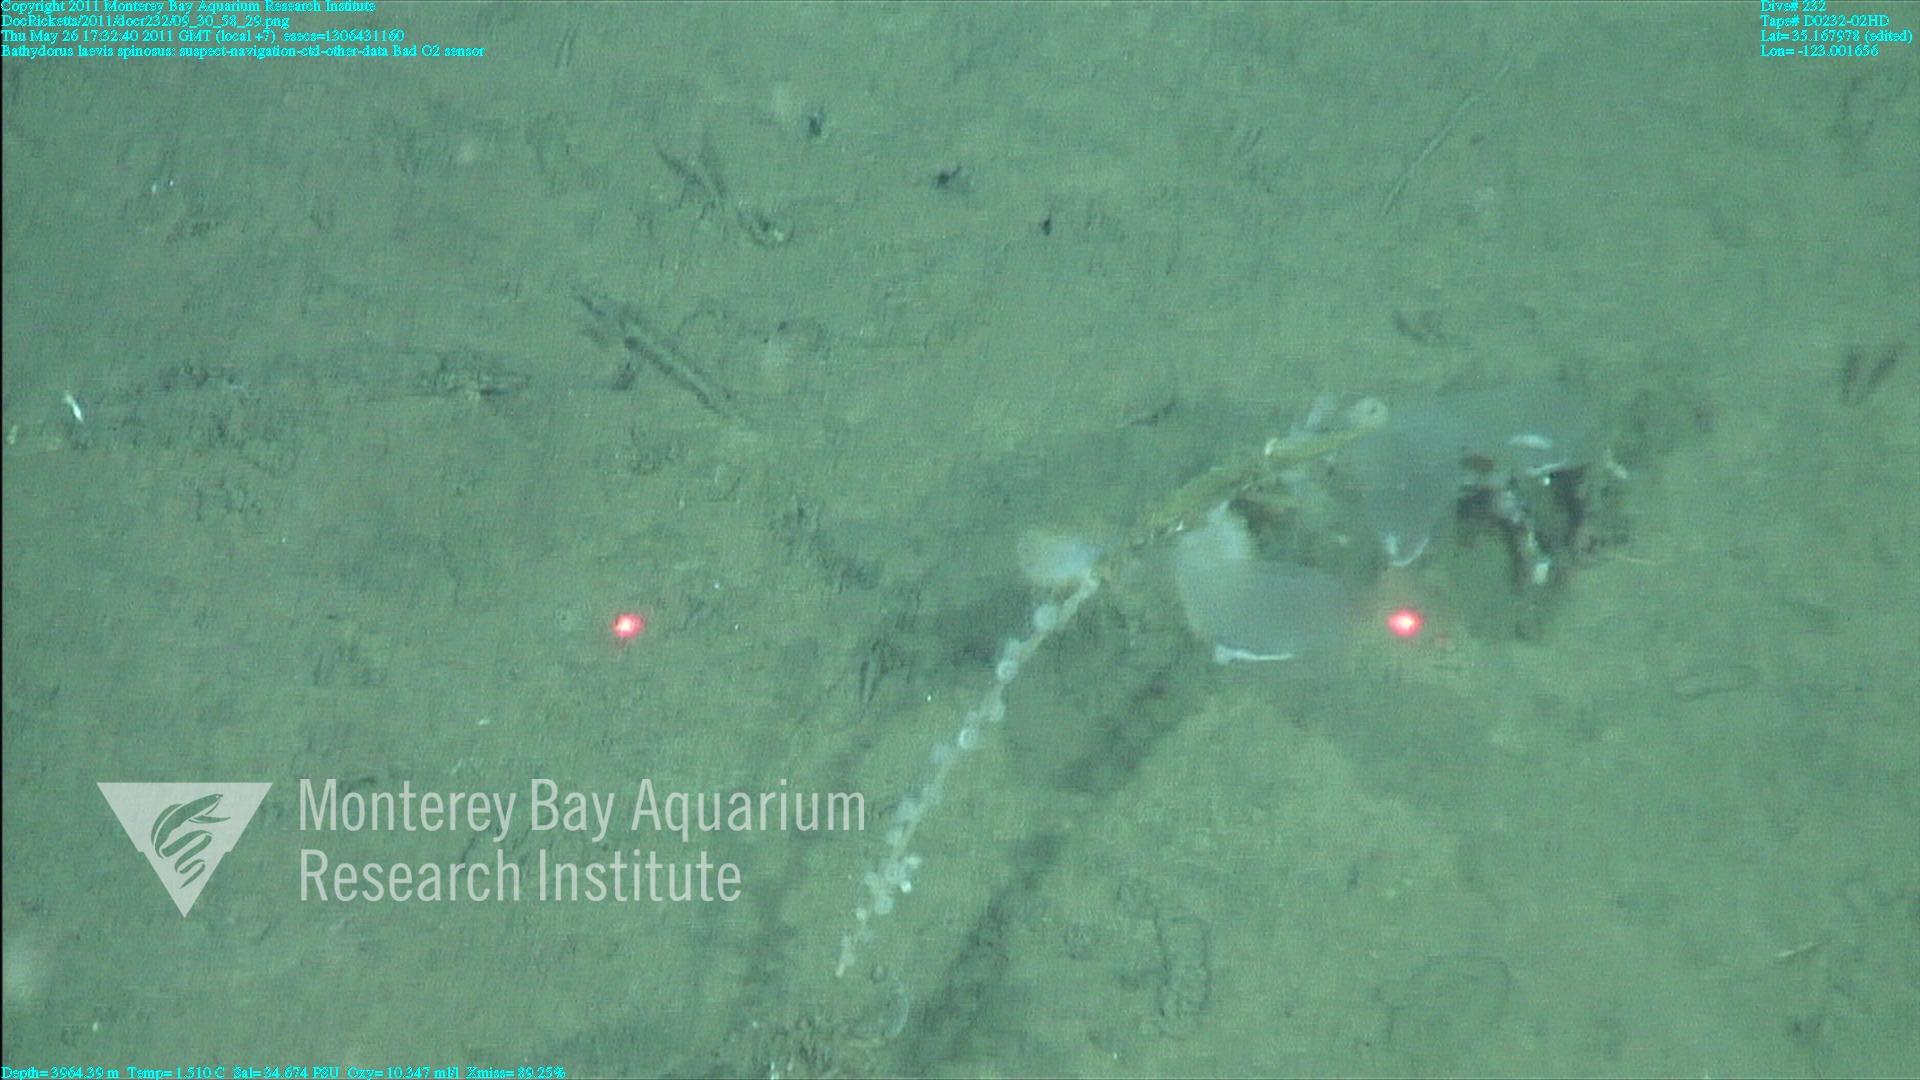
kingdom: Animalia
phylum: Porifera
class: Hexactinellida
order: Lyssacinosida
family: Rossellidae
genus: Bathydorus
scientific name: Bathydorus spinosus
